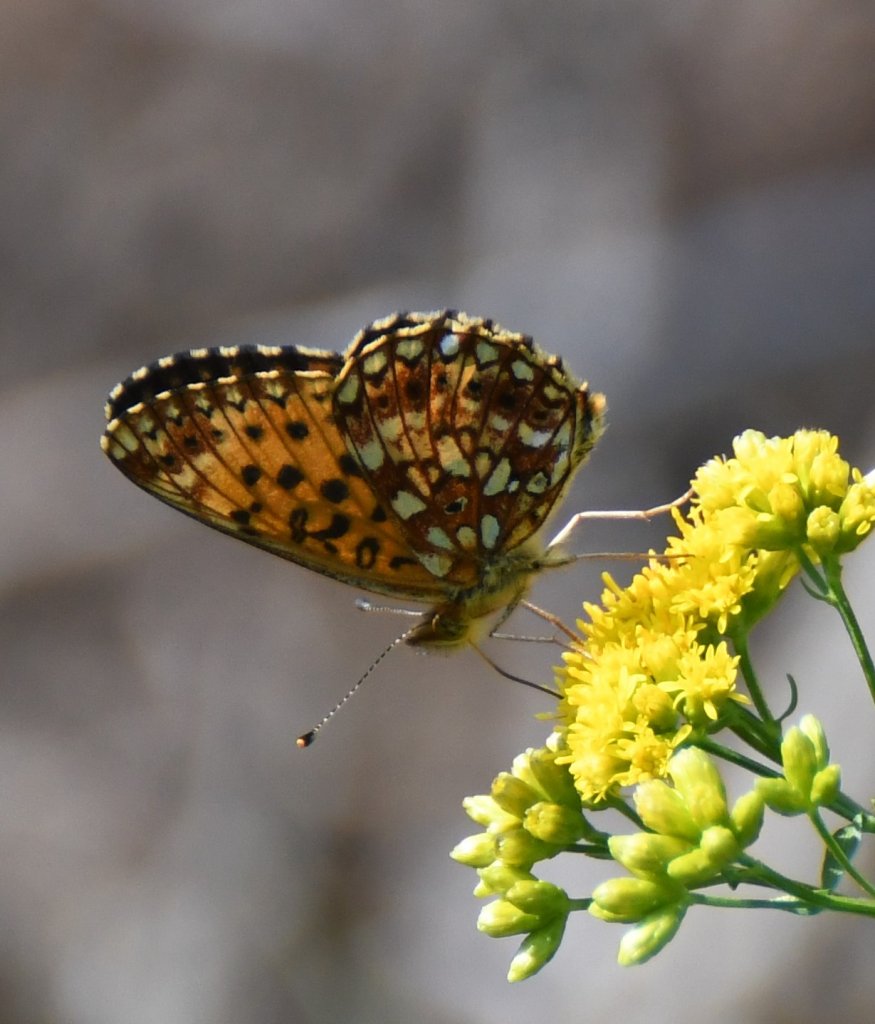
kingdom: Animalia
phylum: Arthropoda
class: Insecta
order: Lepidoptera
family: Nymphalidae
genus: Boloria
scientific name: Boloria selene
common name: Silver-bordered Fritillary
